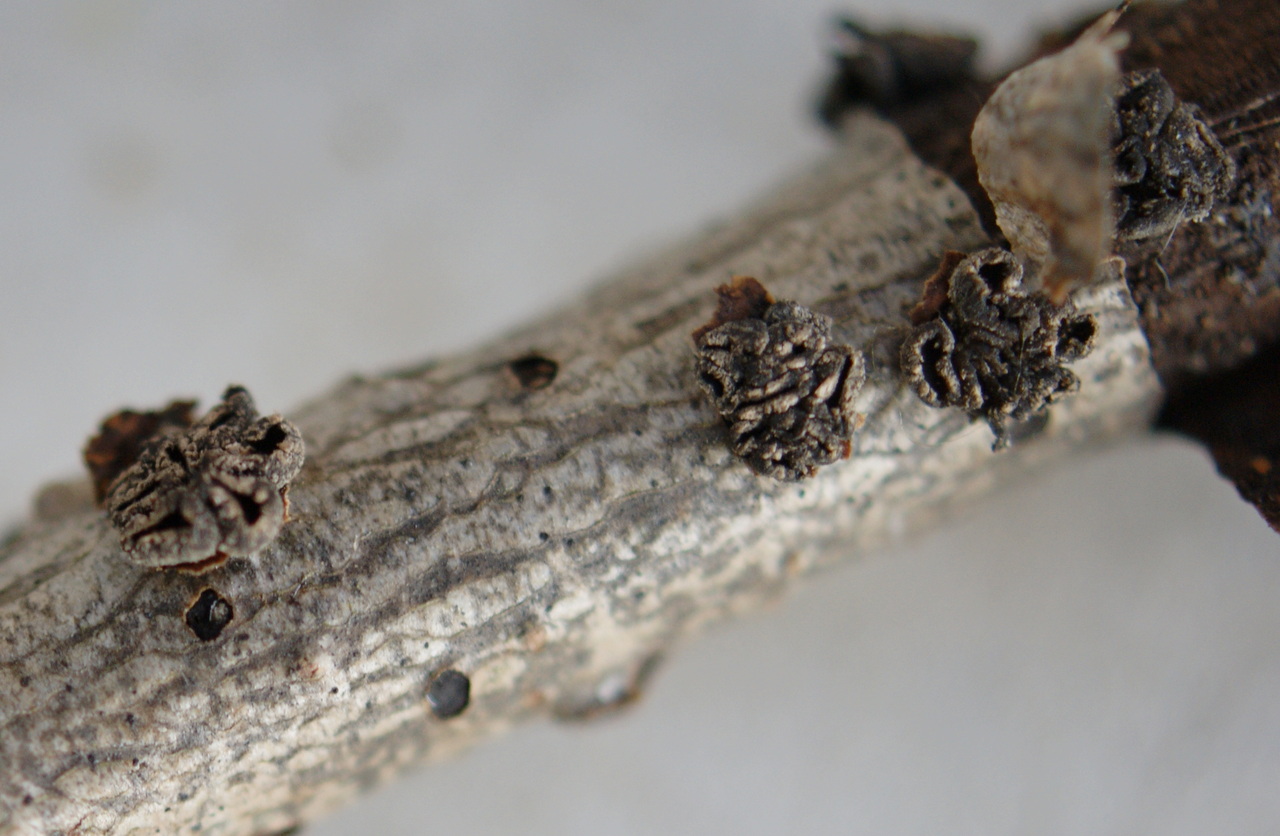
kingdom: Fungi
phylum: Ascomycota
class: Leotiomycetes
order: Helotiales
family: Sclerotiniaceae
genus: Sclerencoelia
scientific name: Sclerencoelia fascicularis
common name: poppel-læderskive
